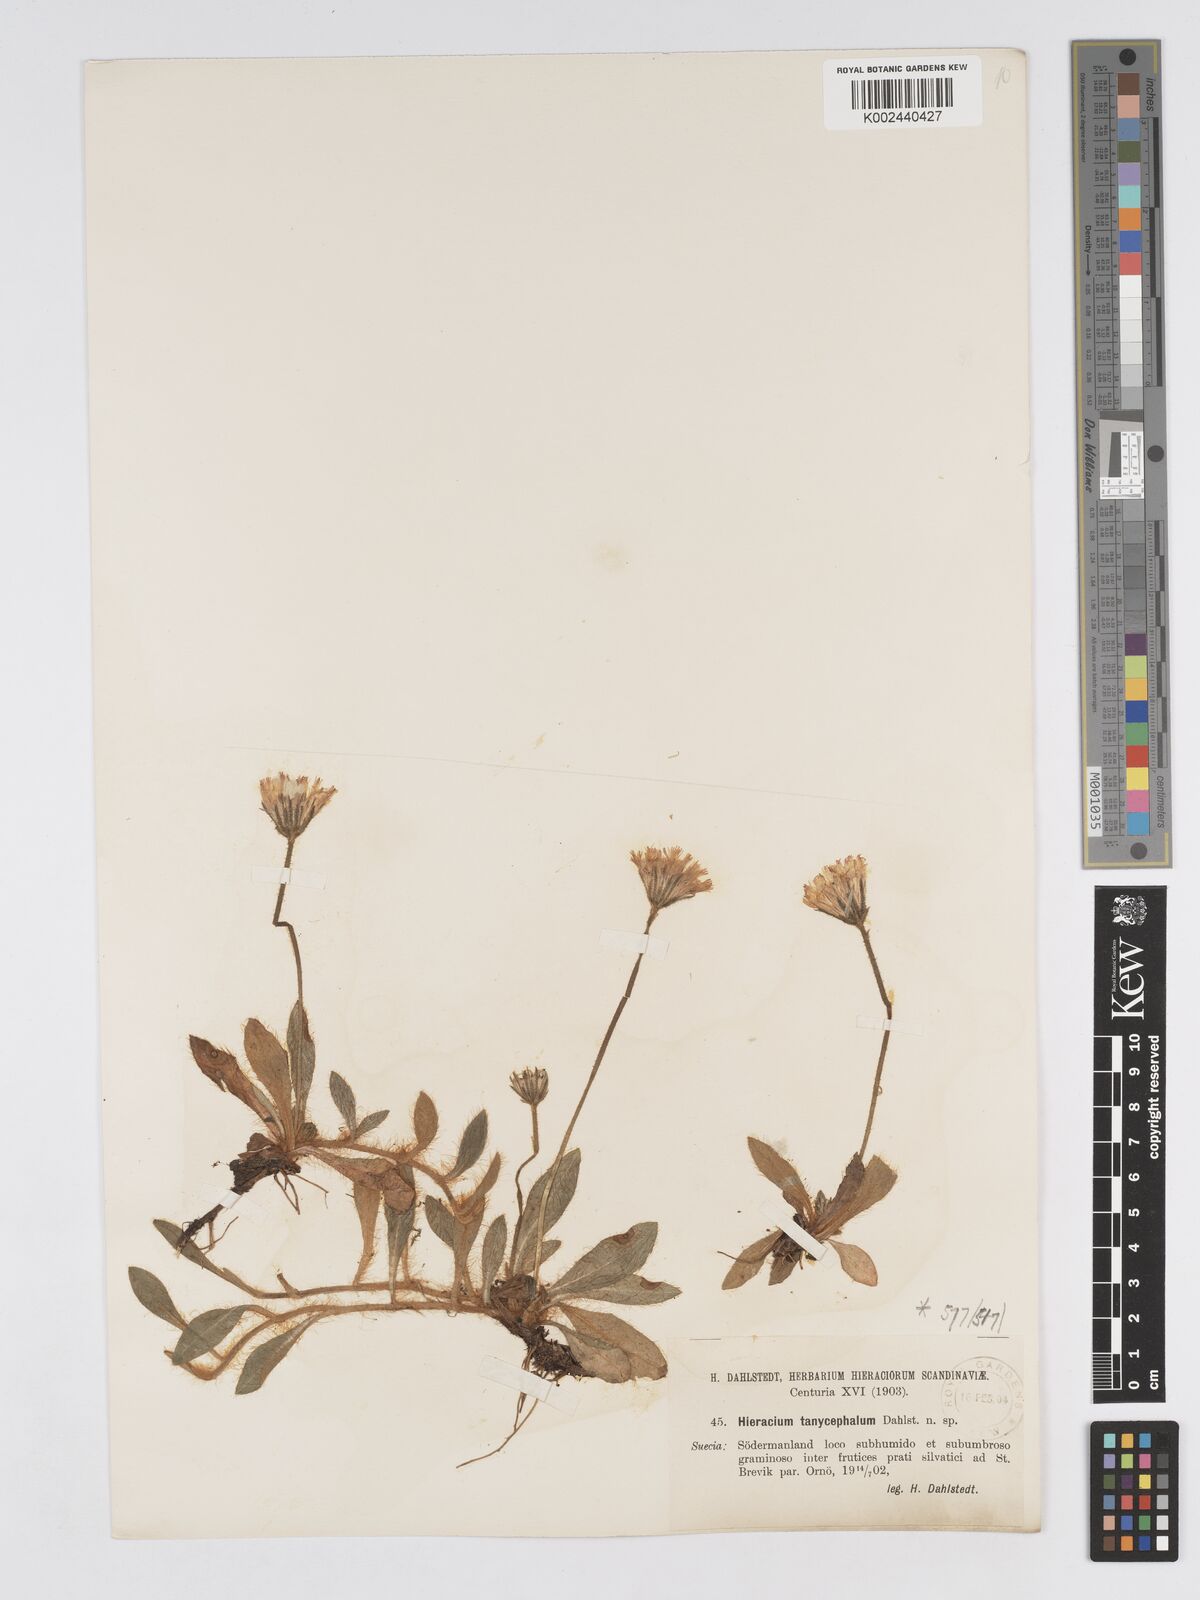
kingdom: Plantae
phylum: Tracheophyta
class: Magnoliopsida
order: Asterales
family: Asteraceae
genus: Hieracium
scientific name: Hieracium
